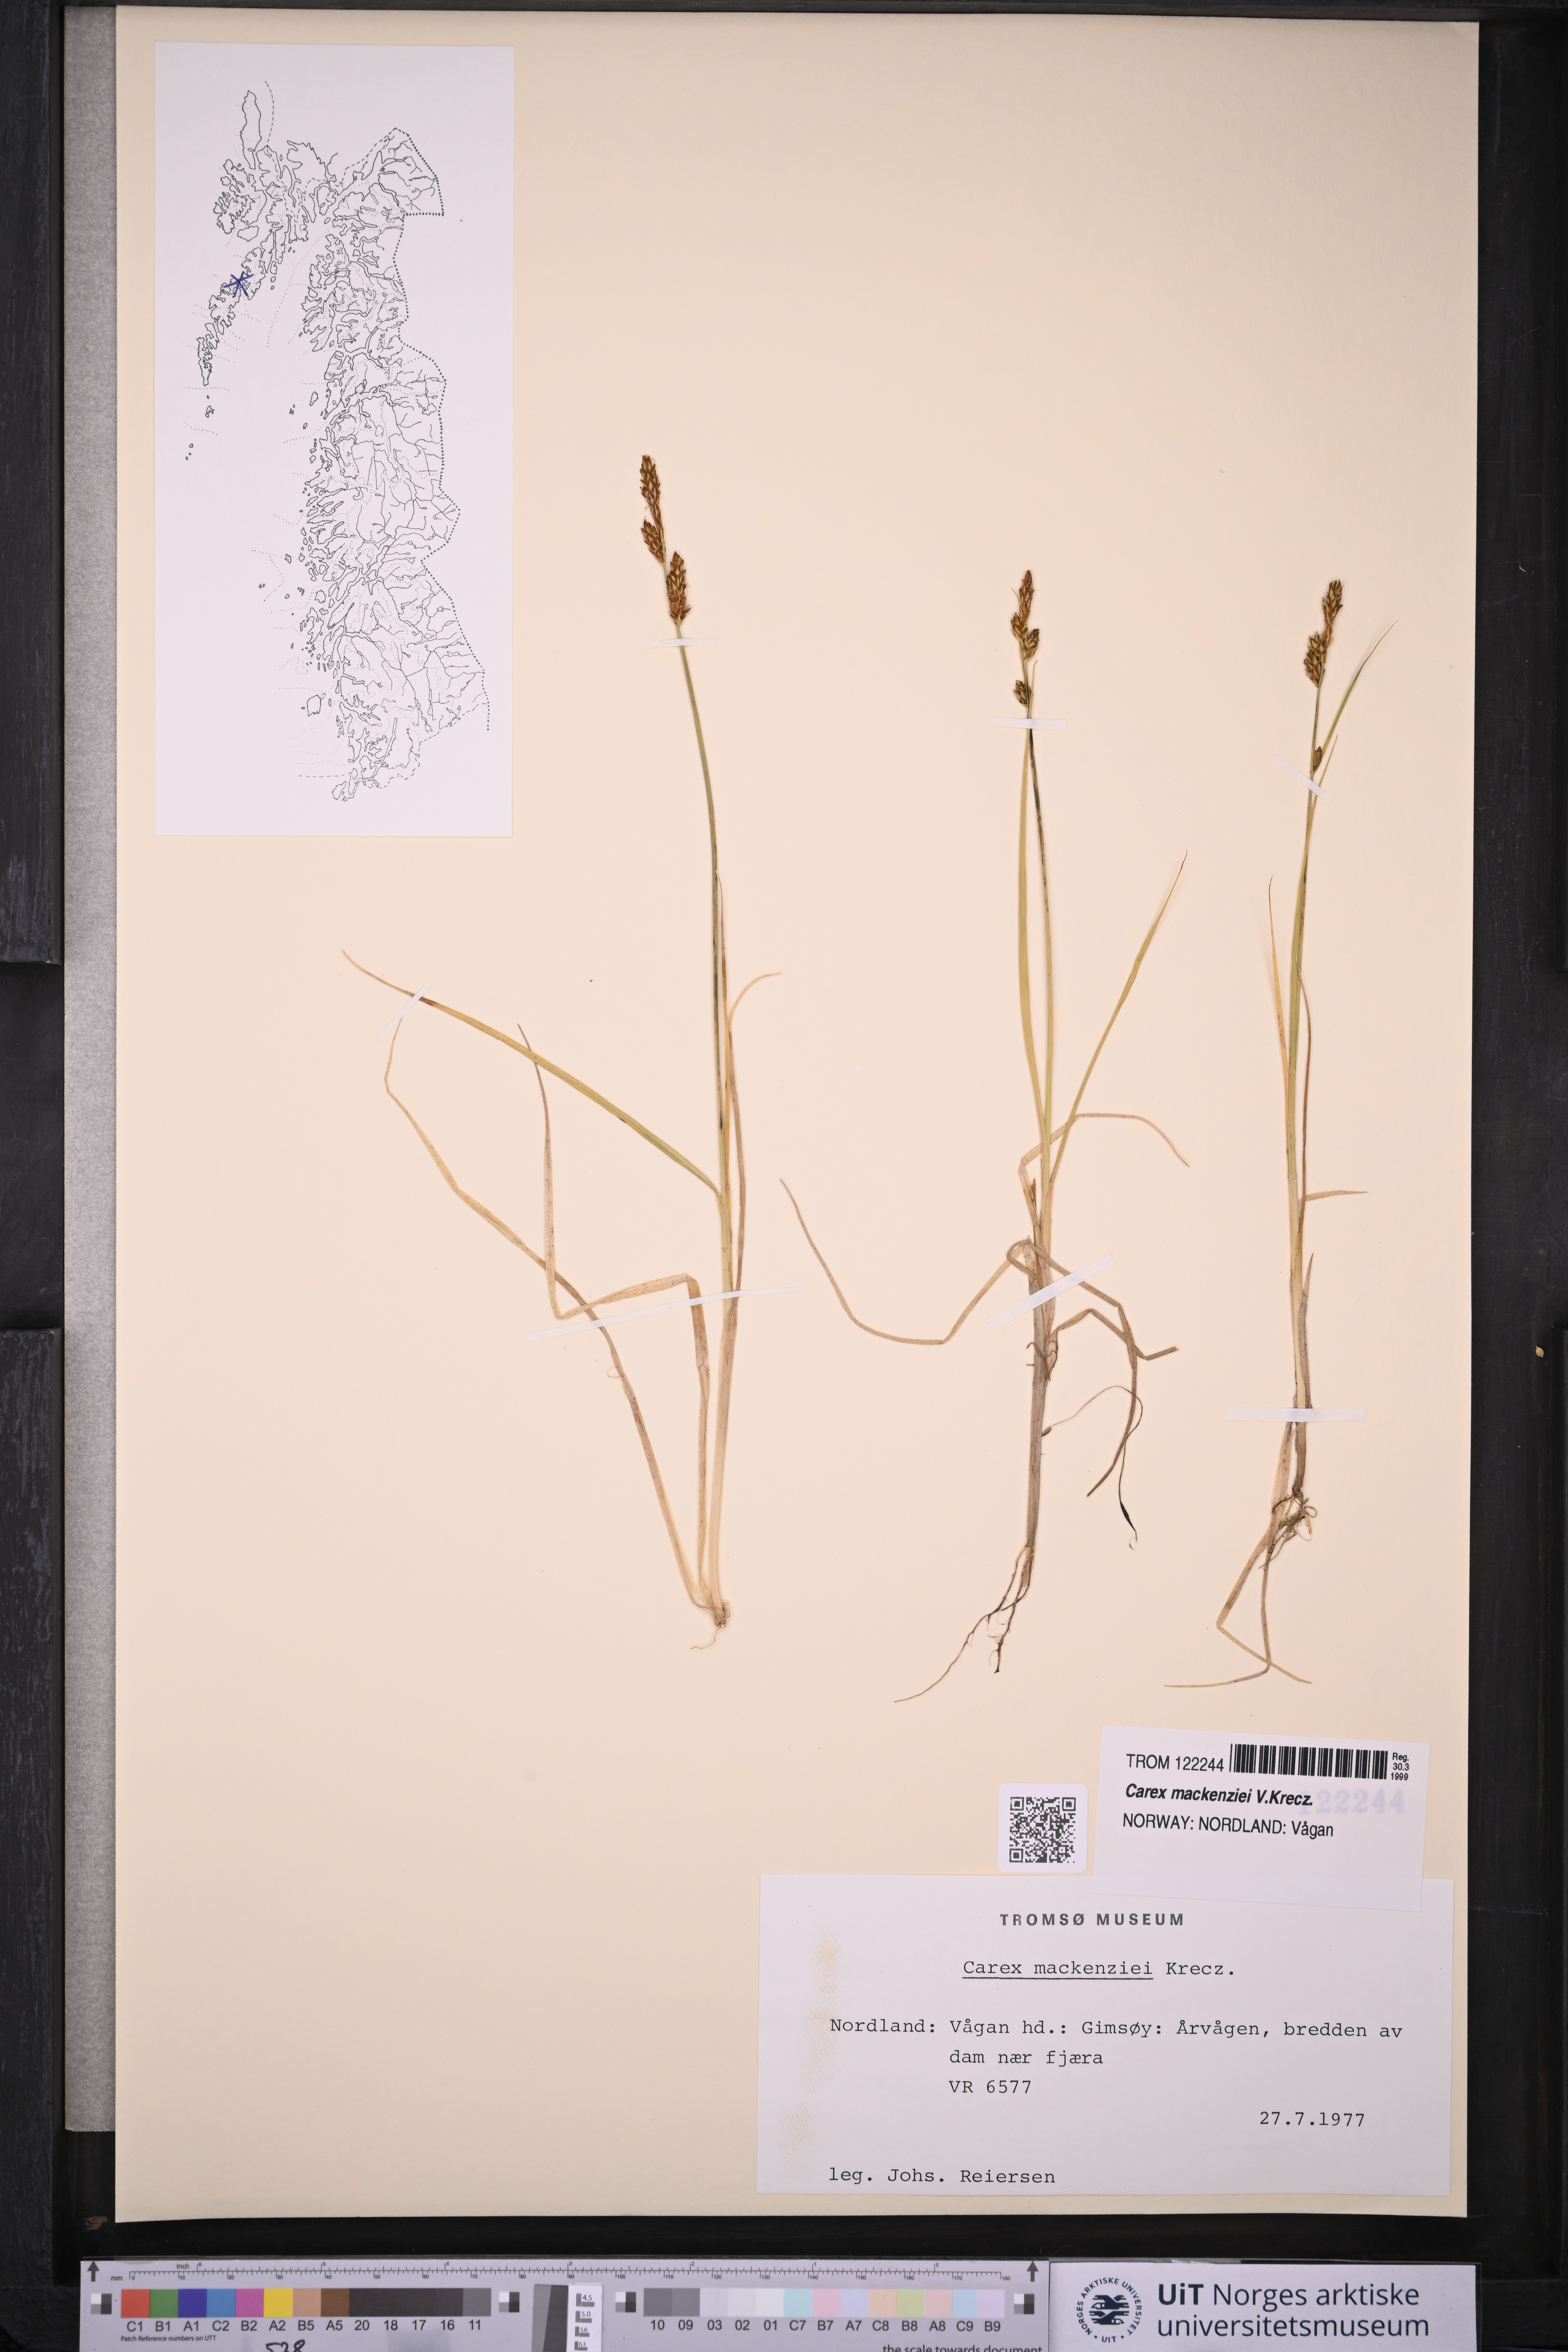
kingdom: Plantae
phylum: Tracheophyta
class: Liliopsida
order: Poales
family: Cyperaceae
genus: Carex
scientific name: Carex mackenziei
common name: Mackenzie's sedge
